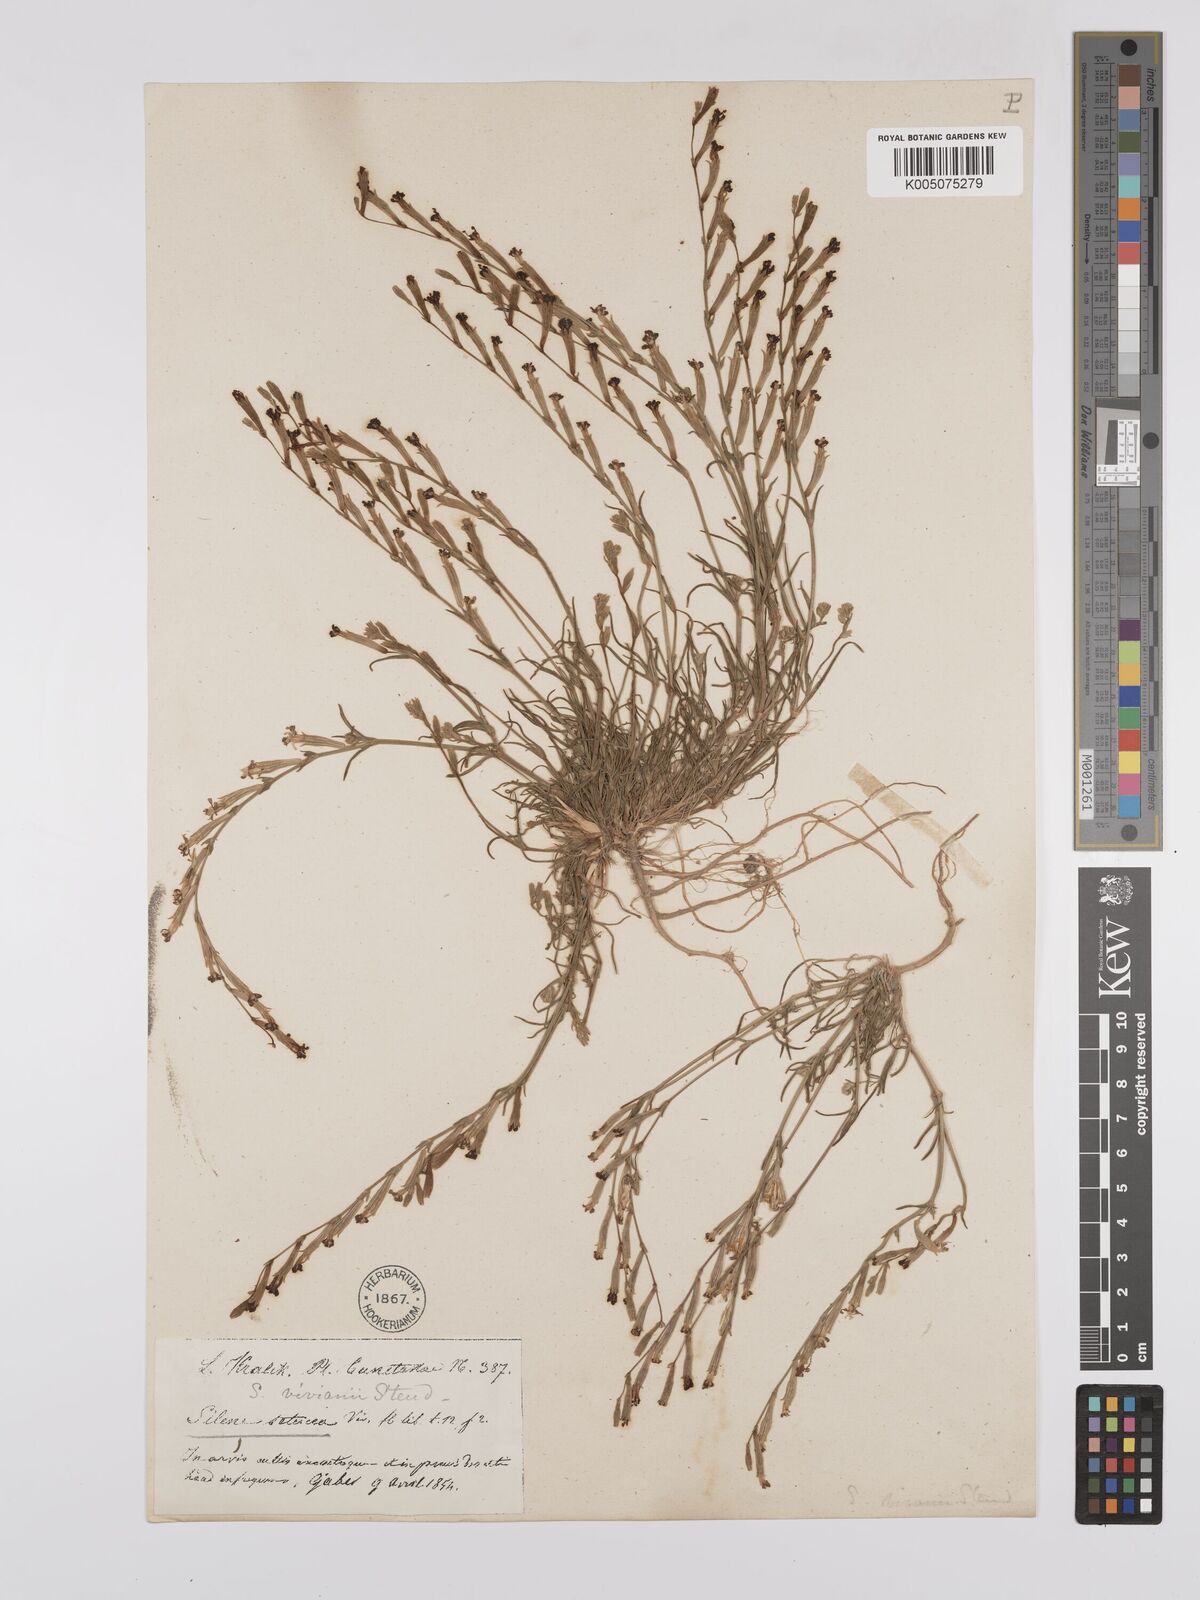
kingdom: Plantae
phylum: Tracheophyta
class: Magnoliopsida
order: Caryophyllales
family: Caryophyllaceae
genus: Silene
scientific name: Silene vivianii
